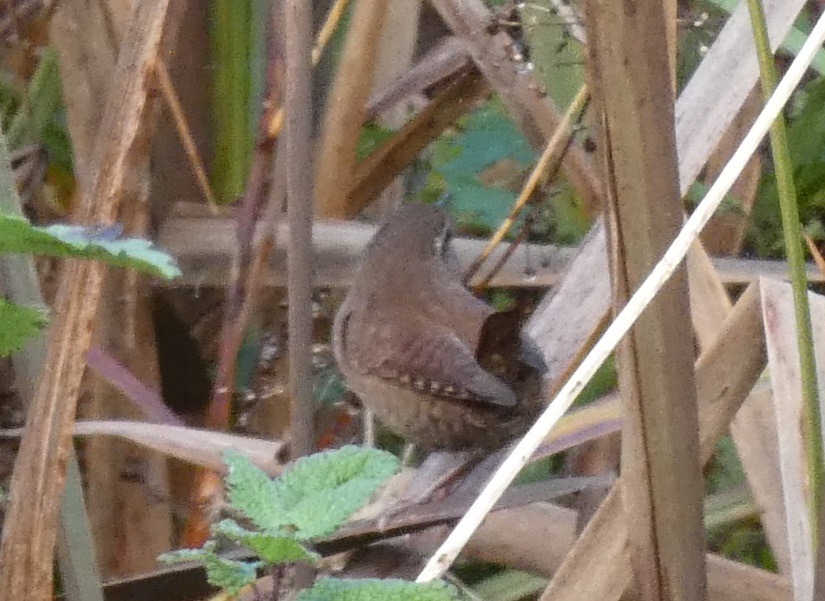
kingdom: Animalia
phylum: Chordata
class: Aves
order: Passeriformes
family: Troglodytidae
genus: Troglodytes
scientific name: Troglodytes troglodytes
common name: Gærdesmutte
